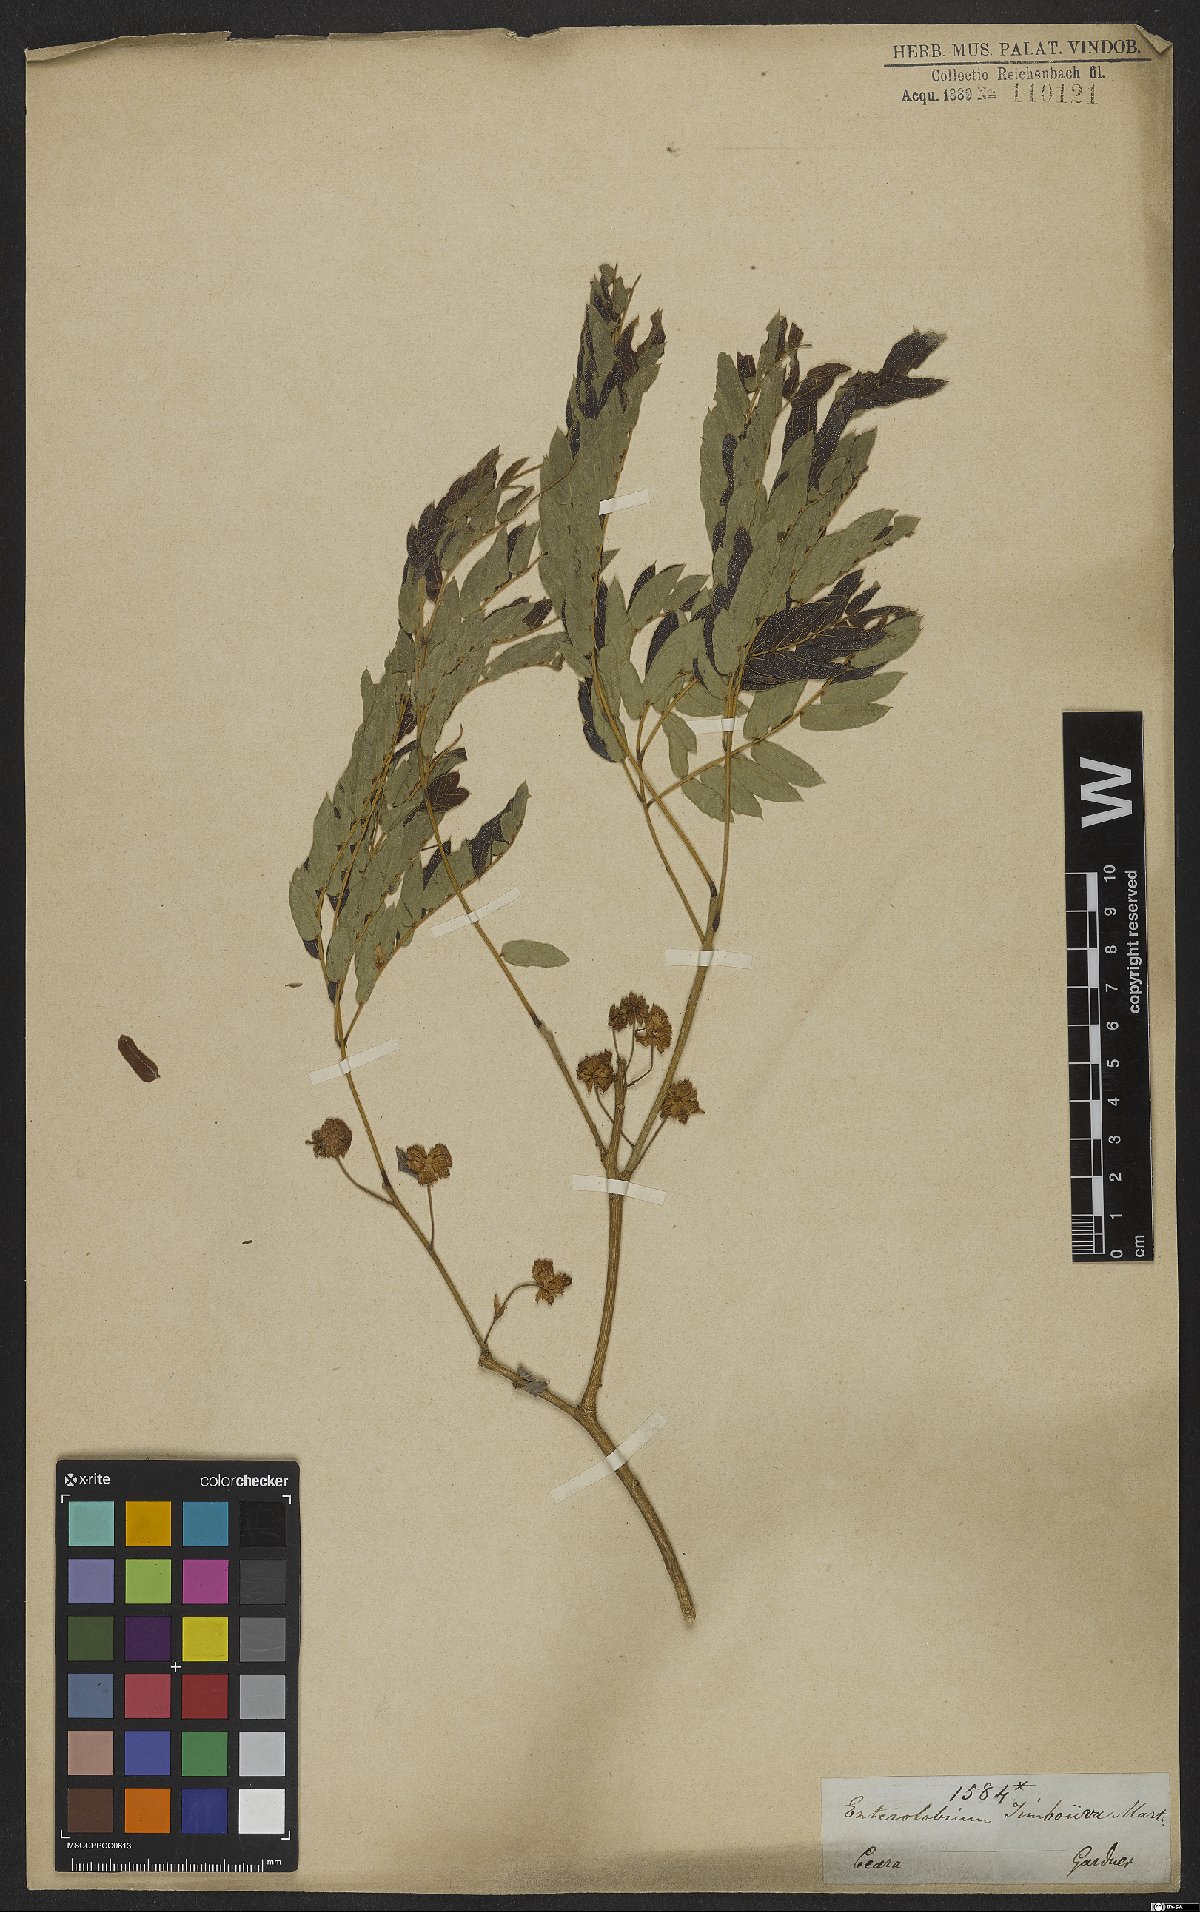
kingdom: Plantae
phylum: Tracheophyta
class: Magnoliopsida
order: Fabales
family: Fabaceae
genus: Enterolobium
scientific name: Enterolobium timbouva
